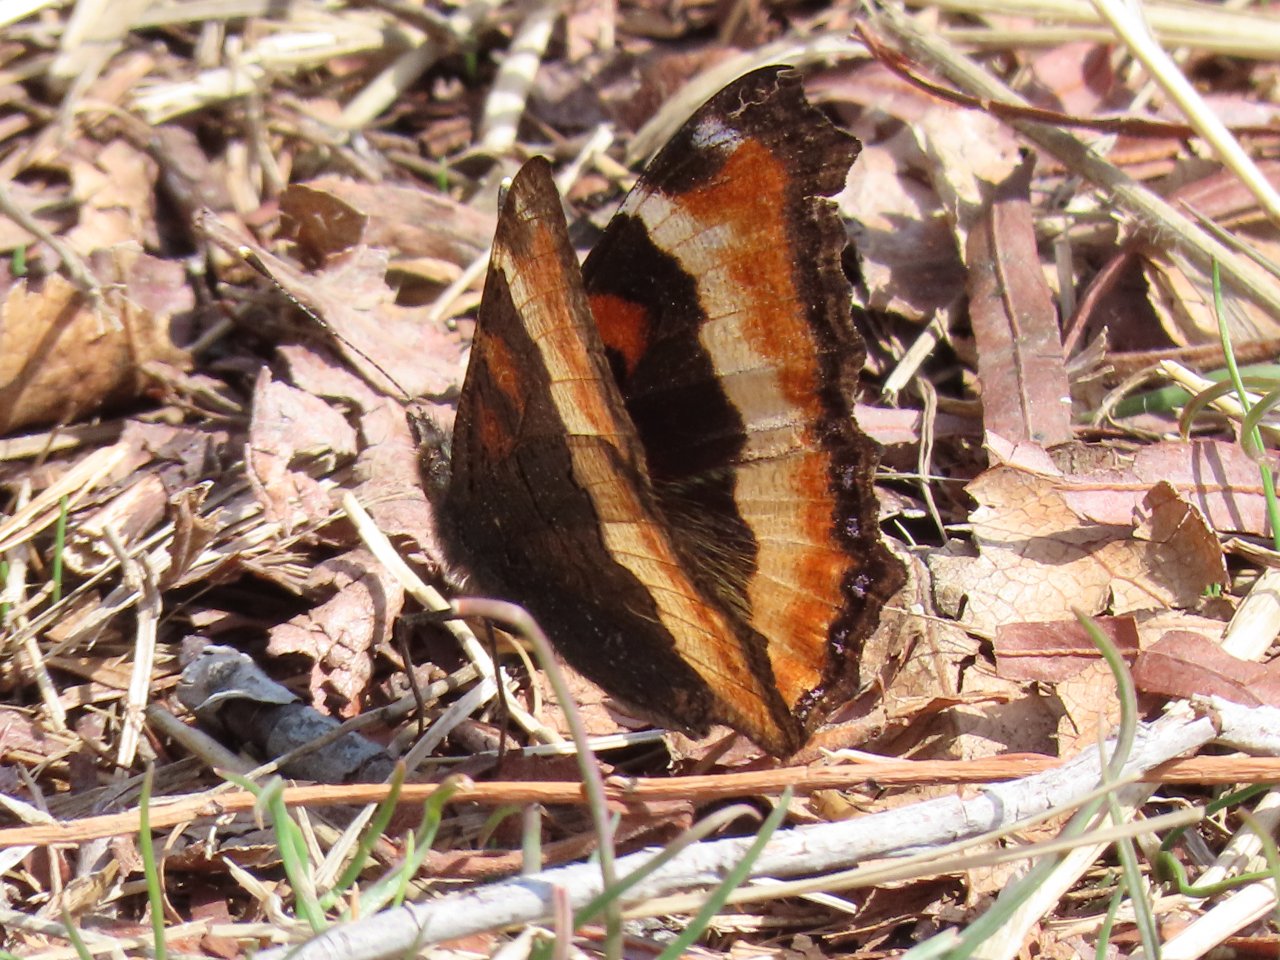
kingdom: Animalia
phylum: Arthropoda
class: Insecta
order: Lepidoptera
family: Nymphalidae
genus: Aglais
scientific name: Aglais milberti
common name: Milbert's Tortoiseshell
